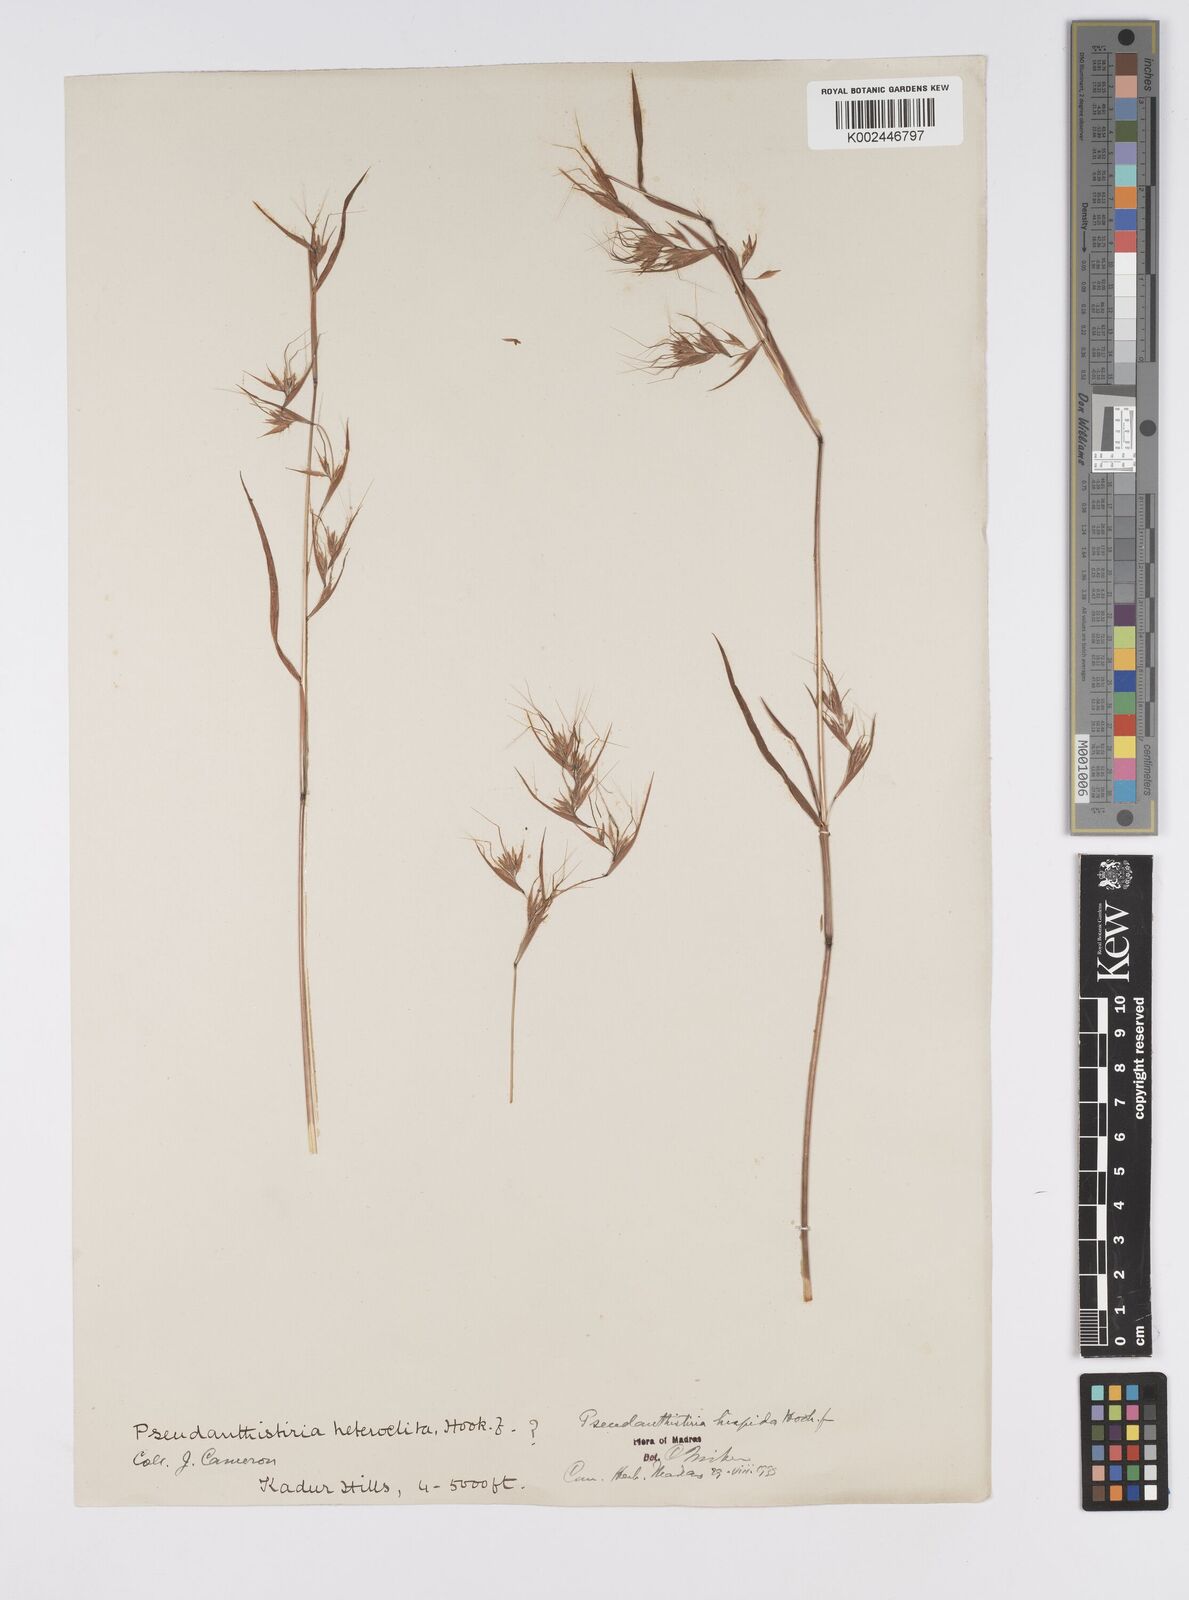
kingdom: Plantae
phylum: Tracheophyta
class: Liliopsida
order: Poales
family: Poaceae
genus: Pseudanthistiria
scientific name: Pseudanthistiria heteroclita
